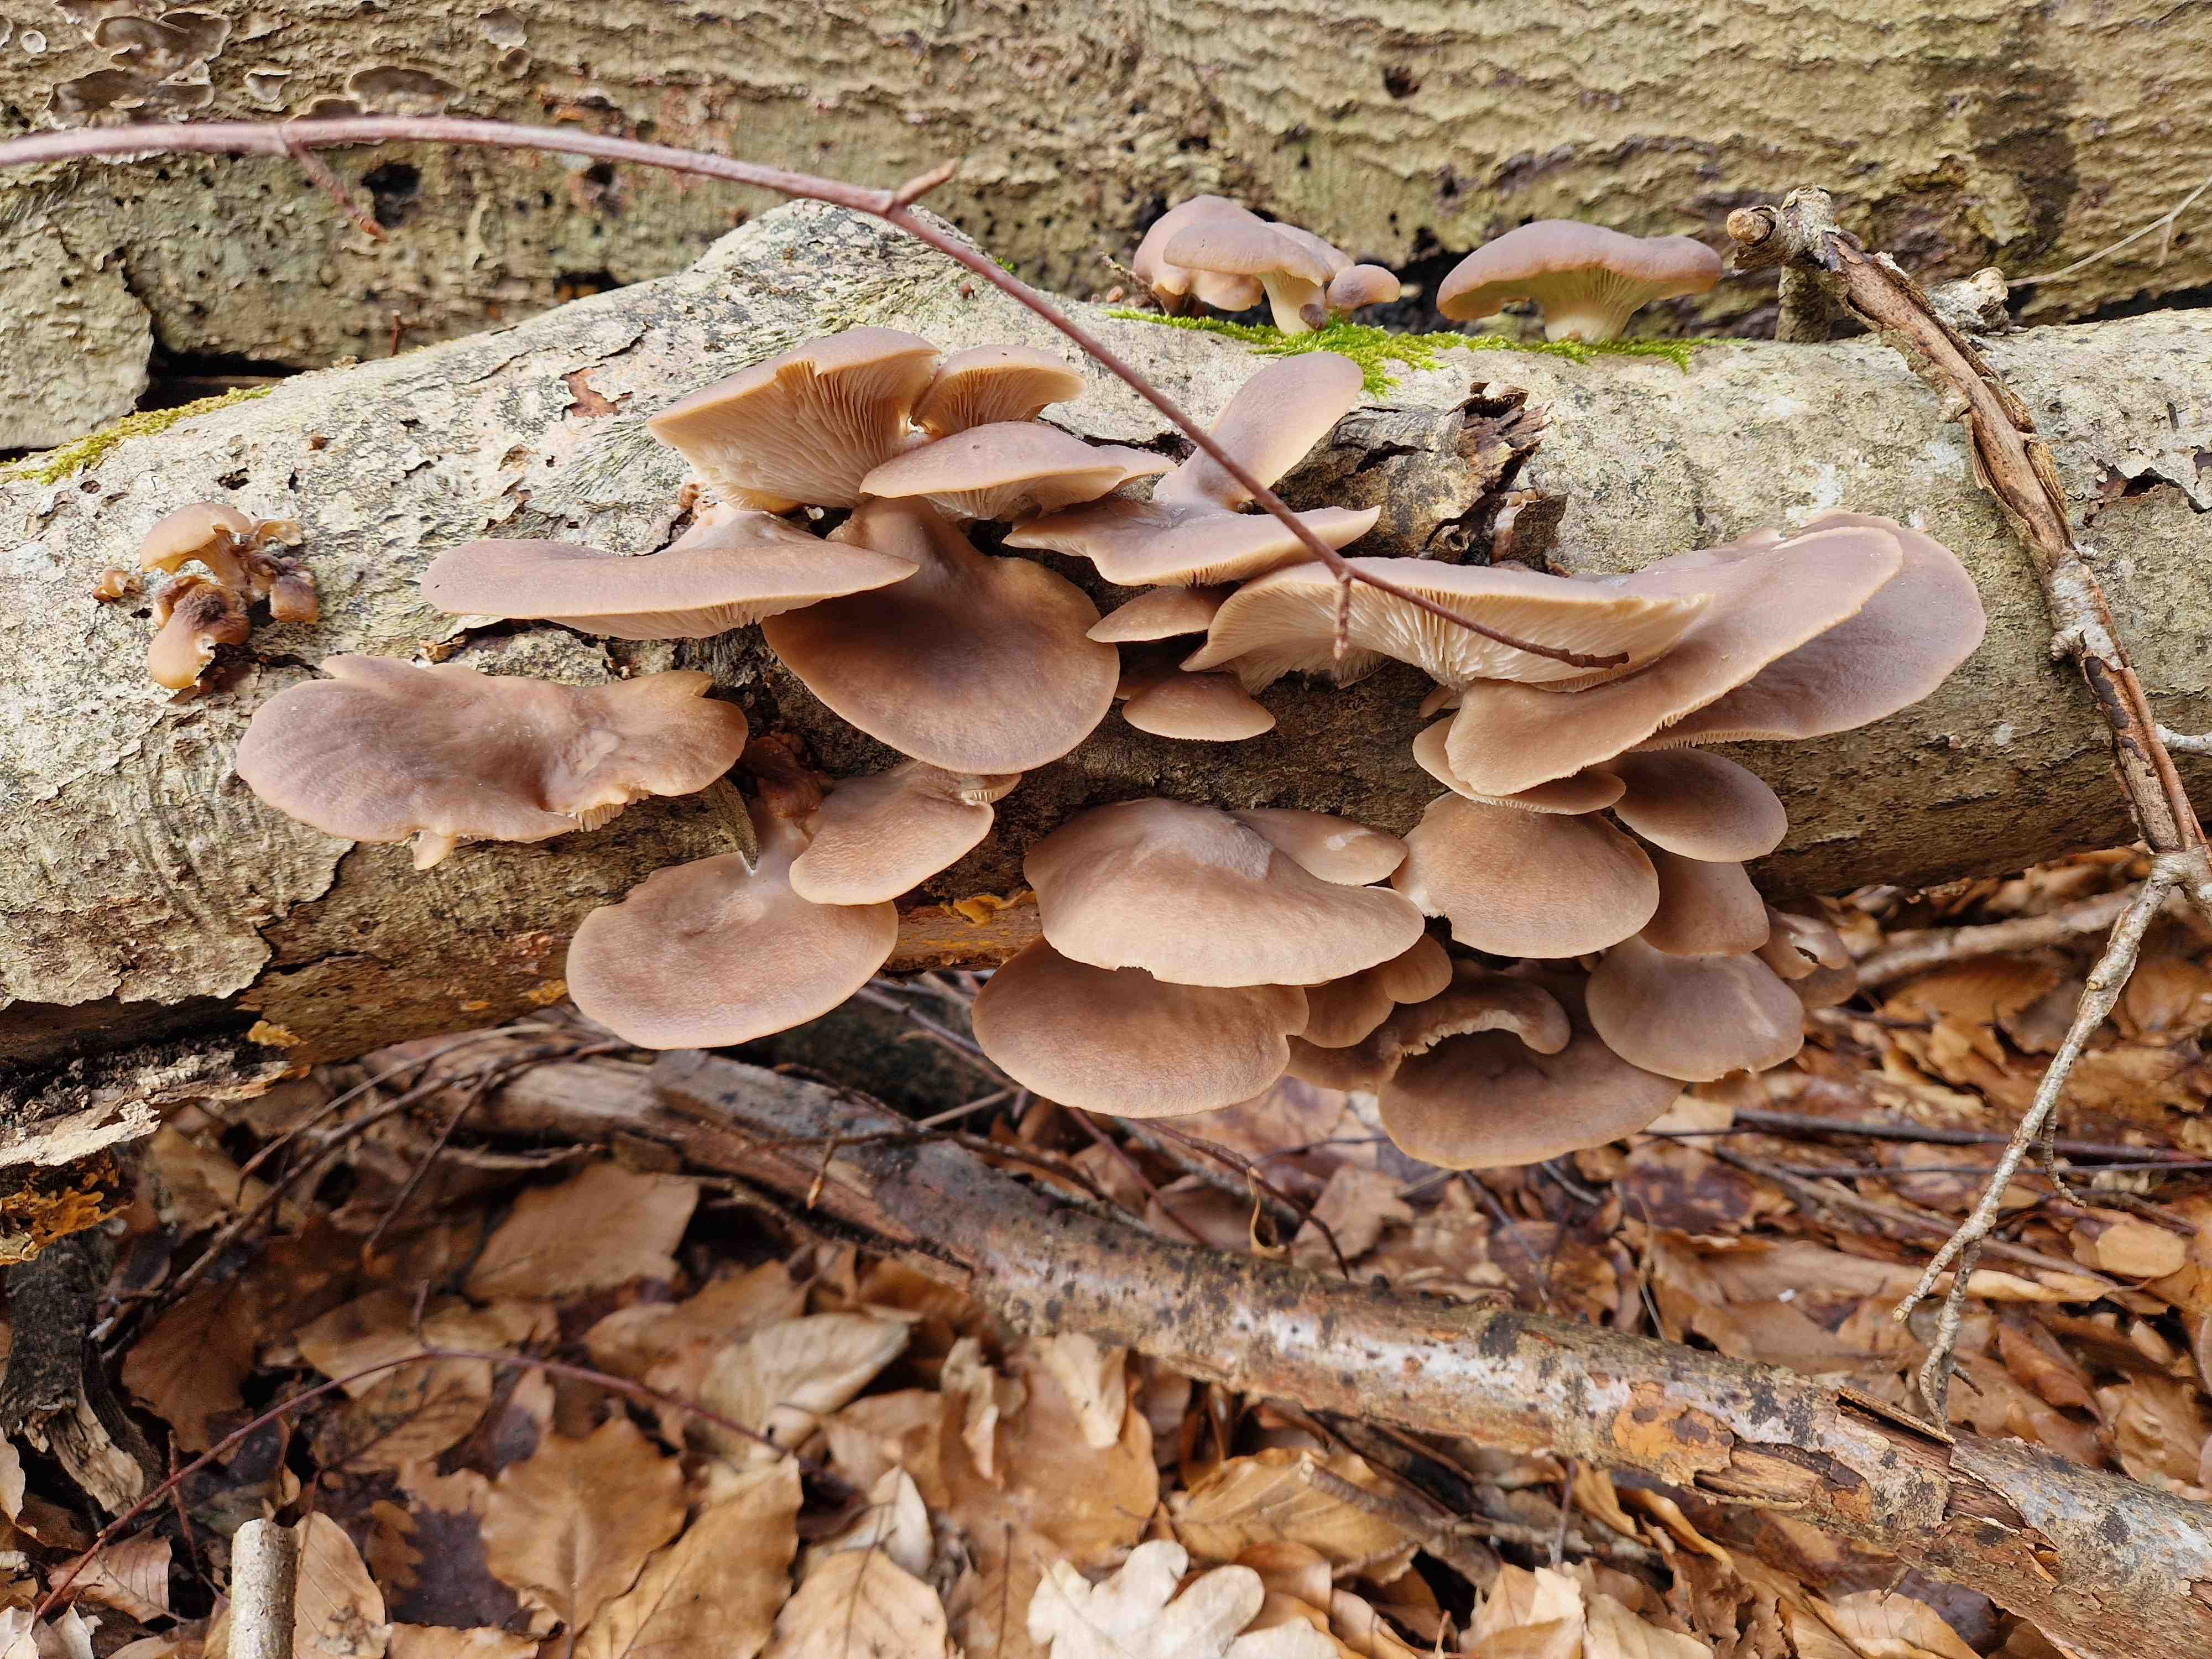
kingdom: Fungi
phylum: Basidiomycota
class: Agaricomycetes
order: Agaricales
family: Pleurotaceae
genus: Pleurotus
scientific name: Pleurotus ostreatus
